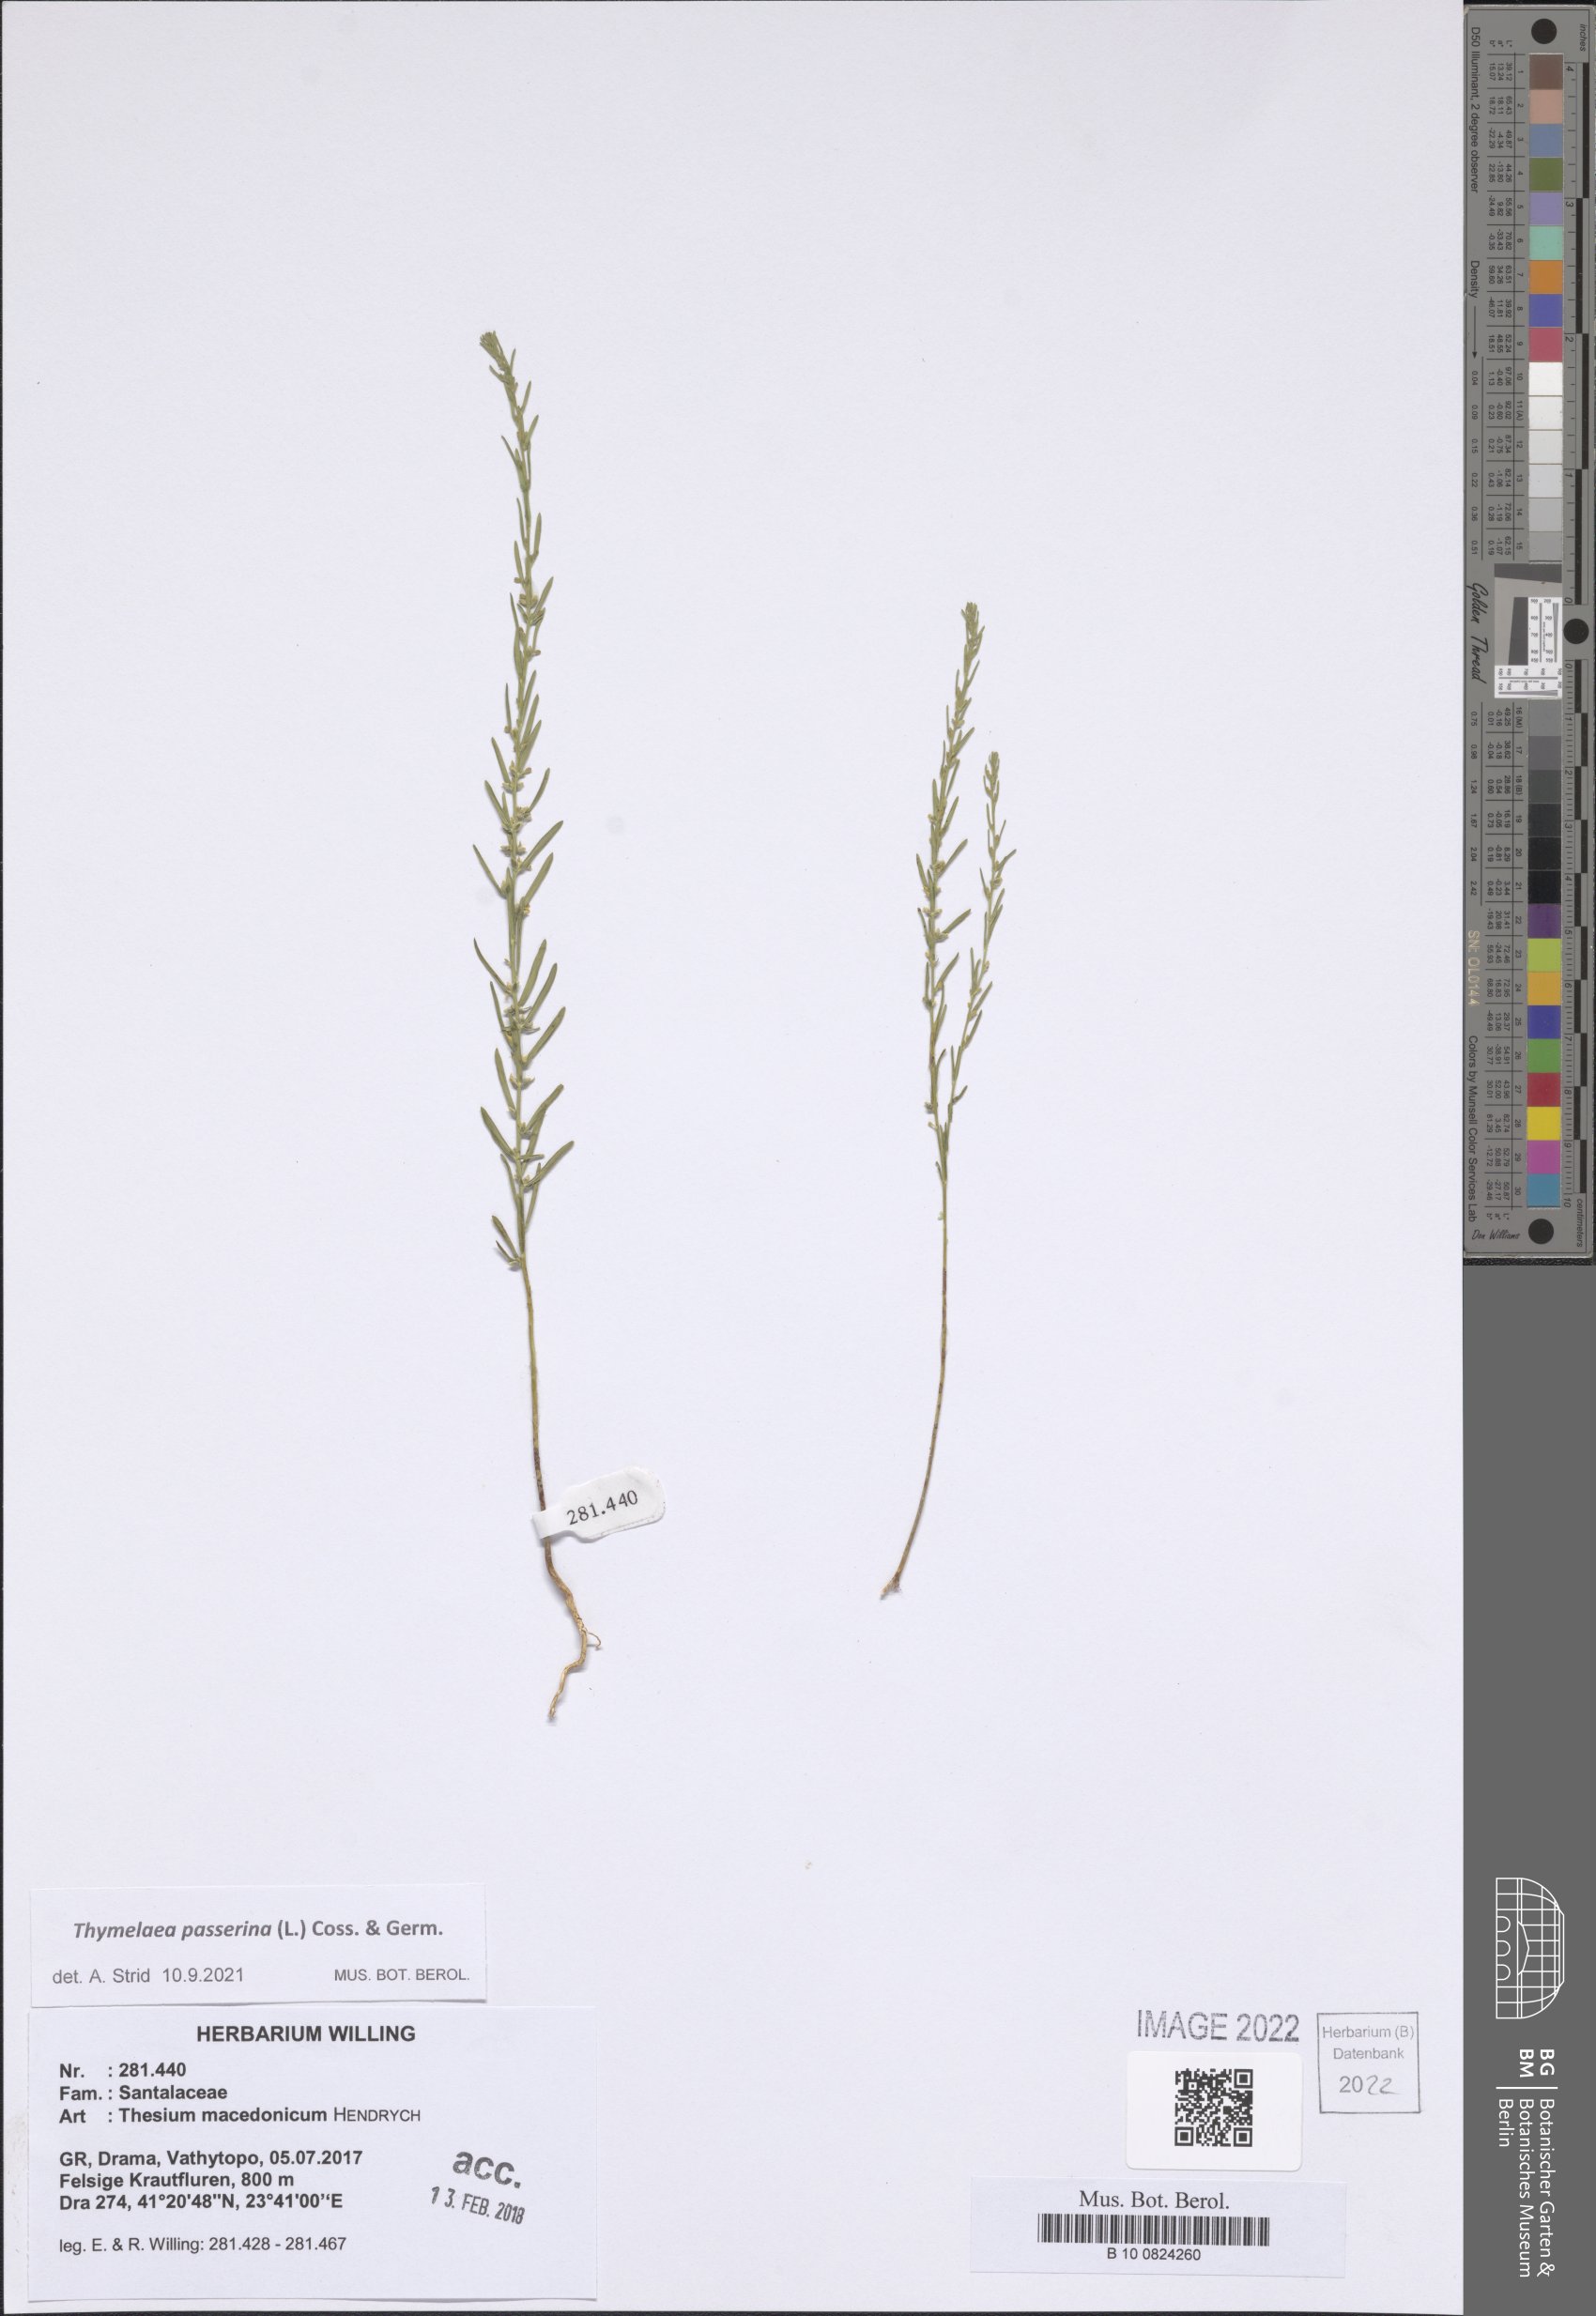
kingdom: Plantae
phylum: Tracheophyta
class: Magnoliopsida
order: Malvales
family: Thymelaeaceae
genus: Thymelaea
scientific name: Thymelaea passerina
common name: Annual thymelaea
